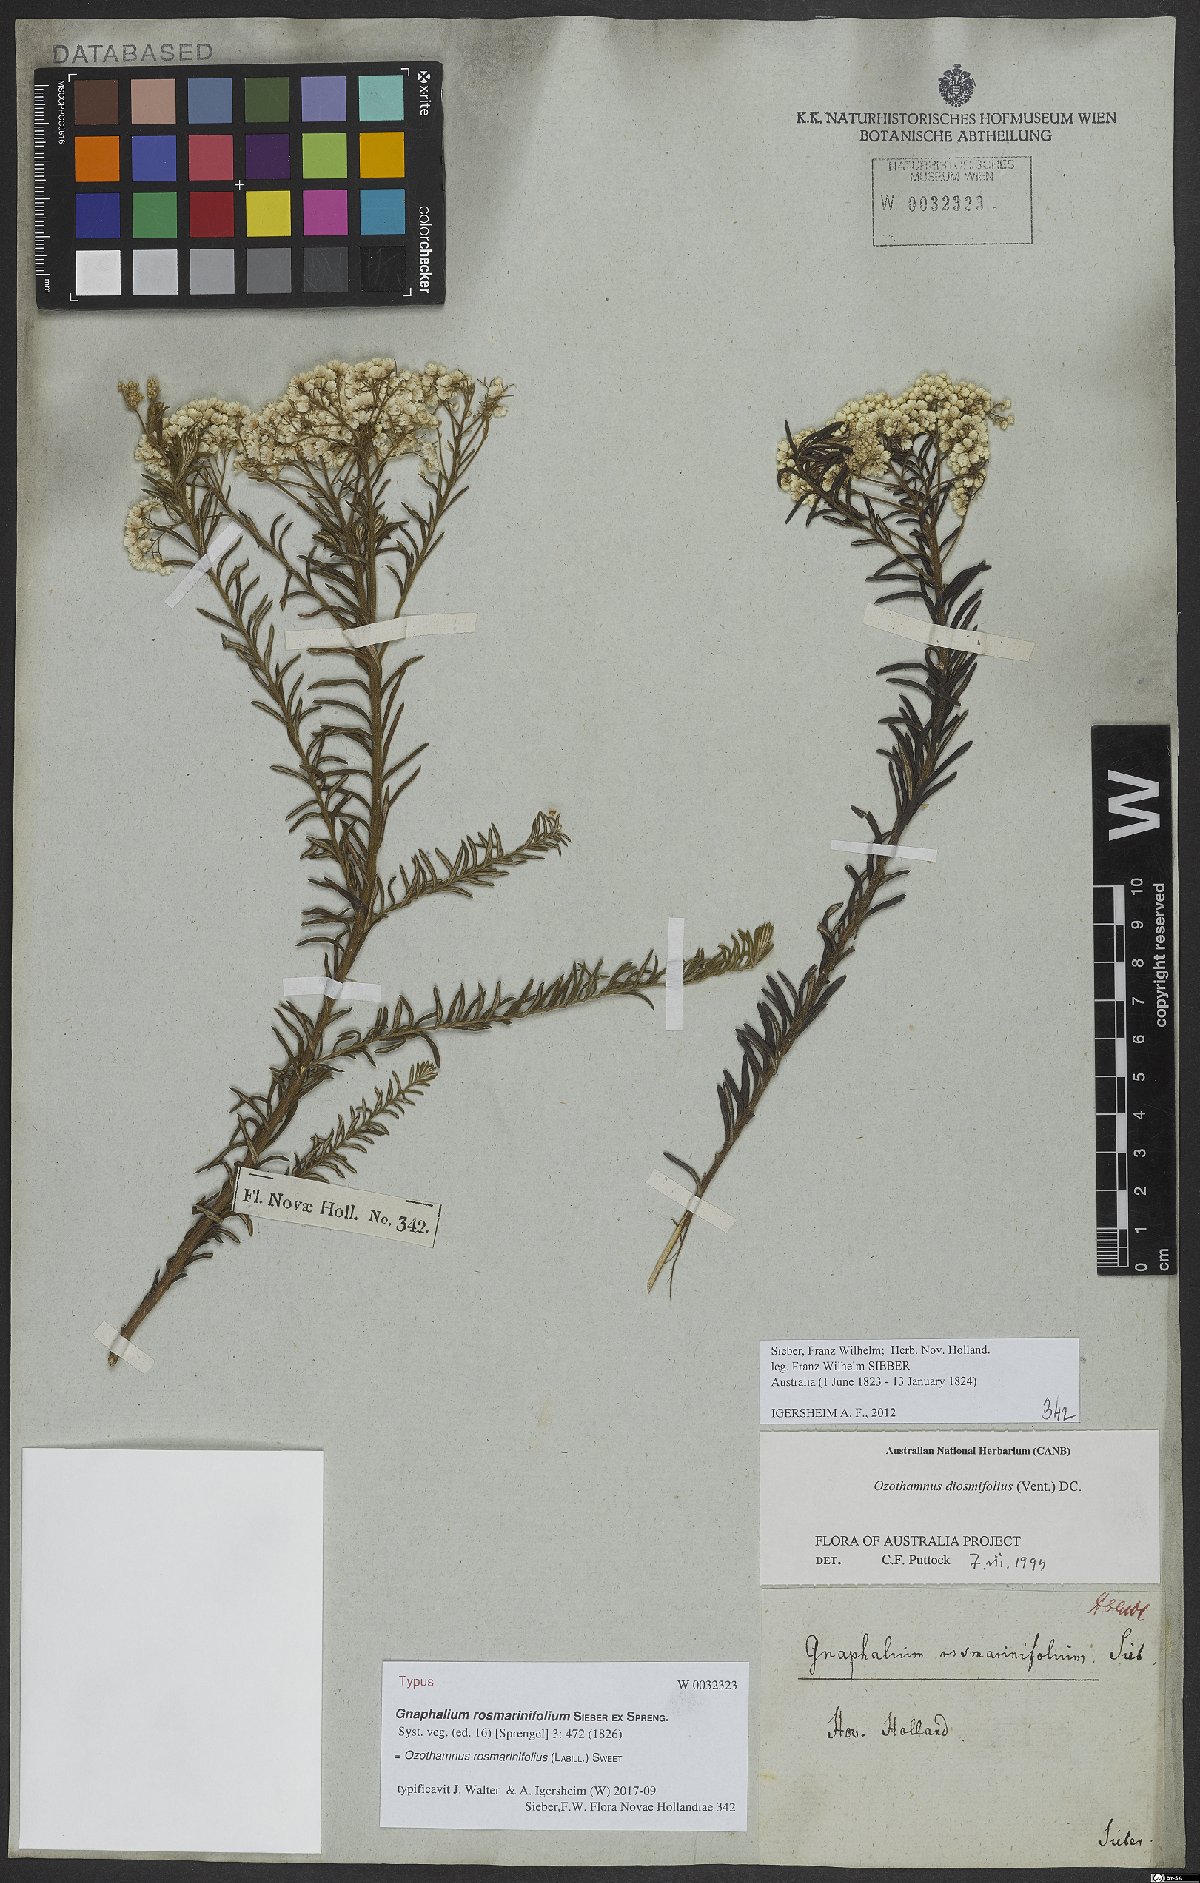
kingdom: Plantae
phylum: Tracheophyta
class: Magnoliopsida
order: Asterales
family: Asteraceae
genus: Ozothamnus
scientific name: Ozothamnus rosmarinifolius
